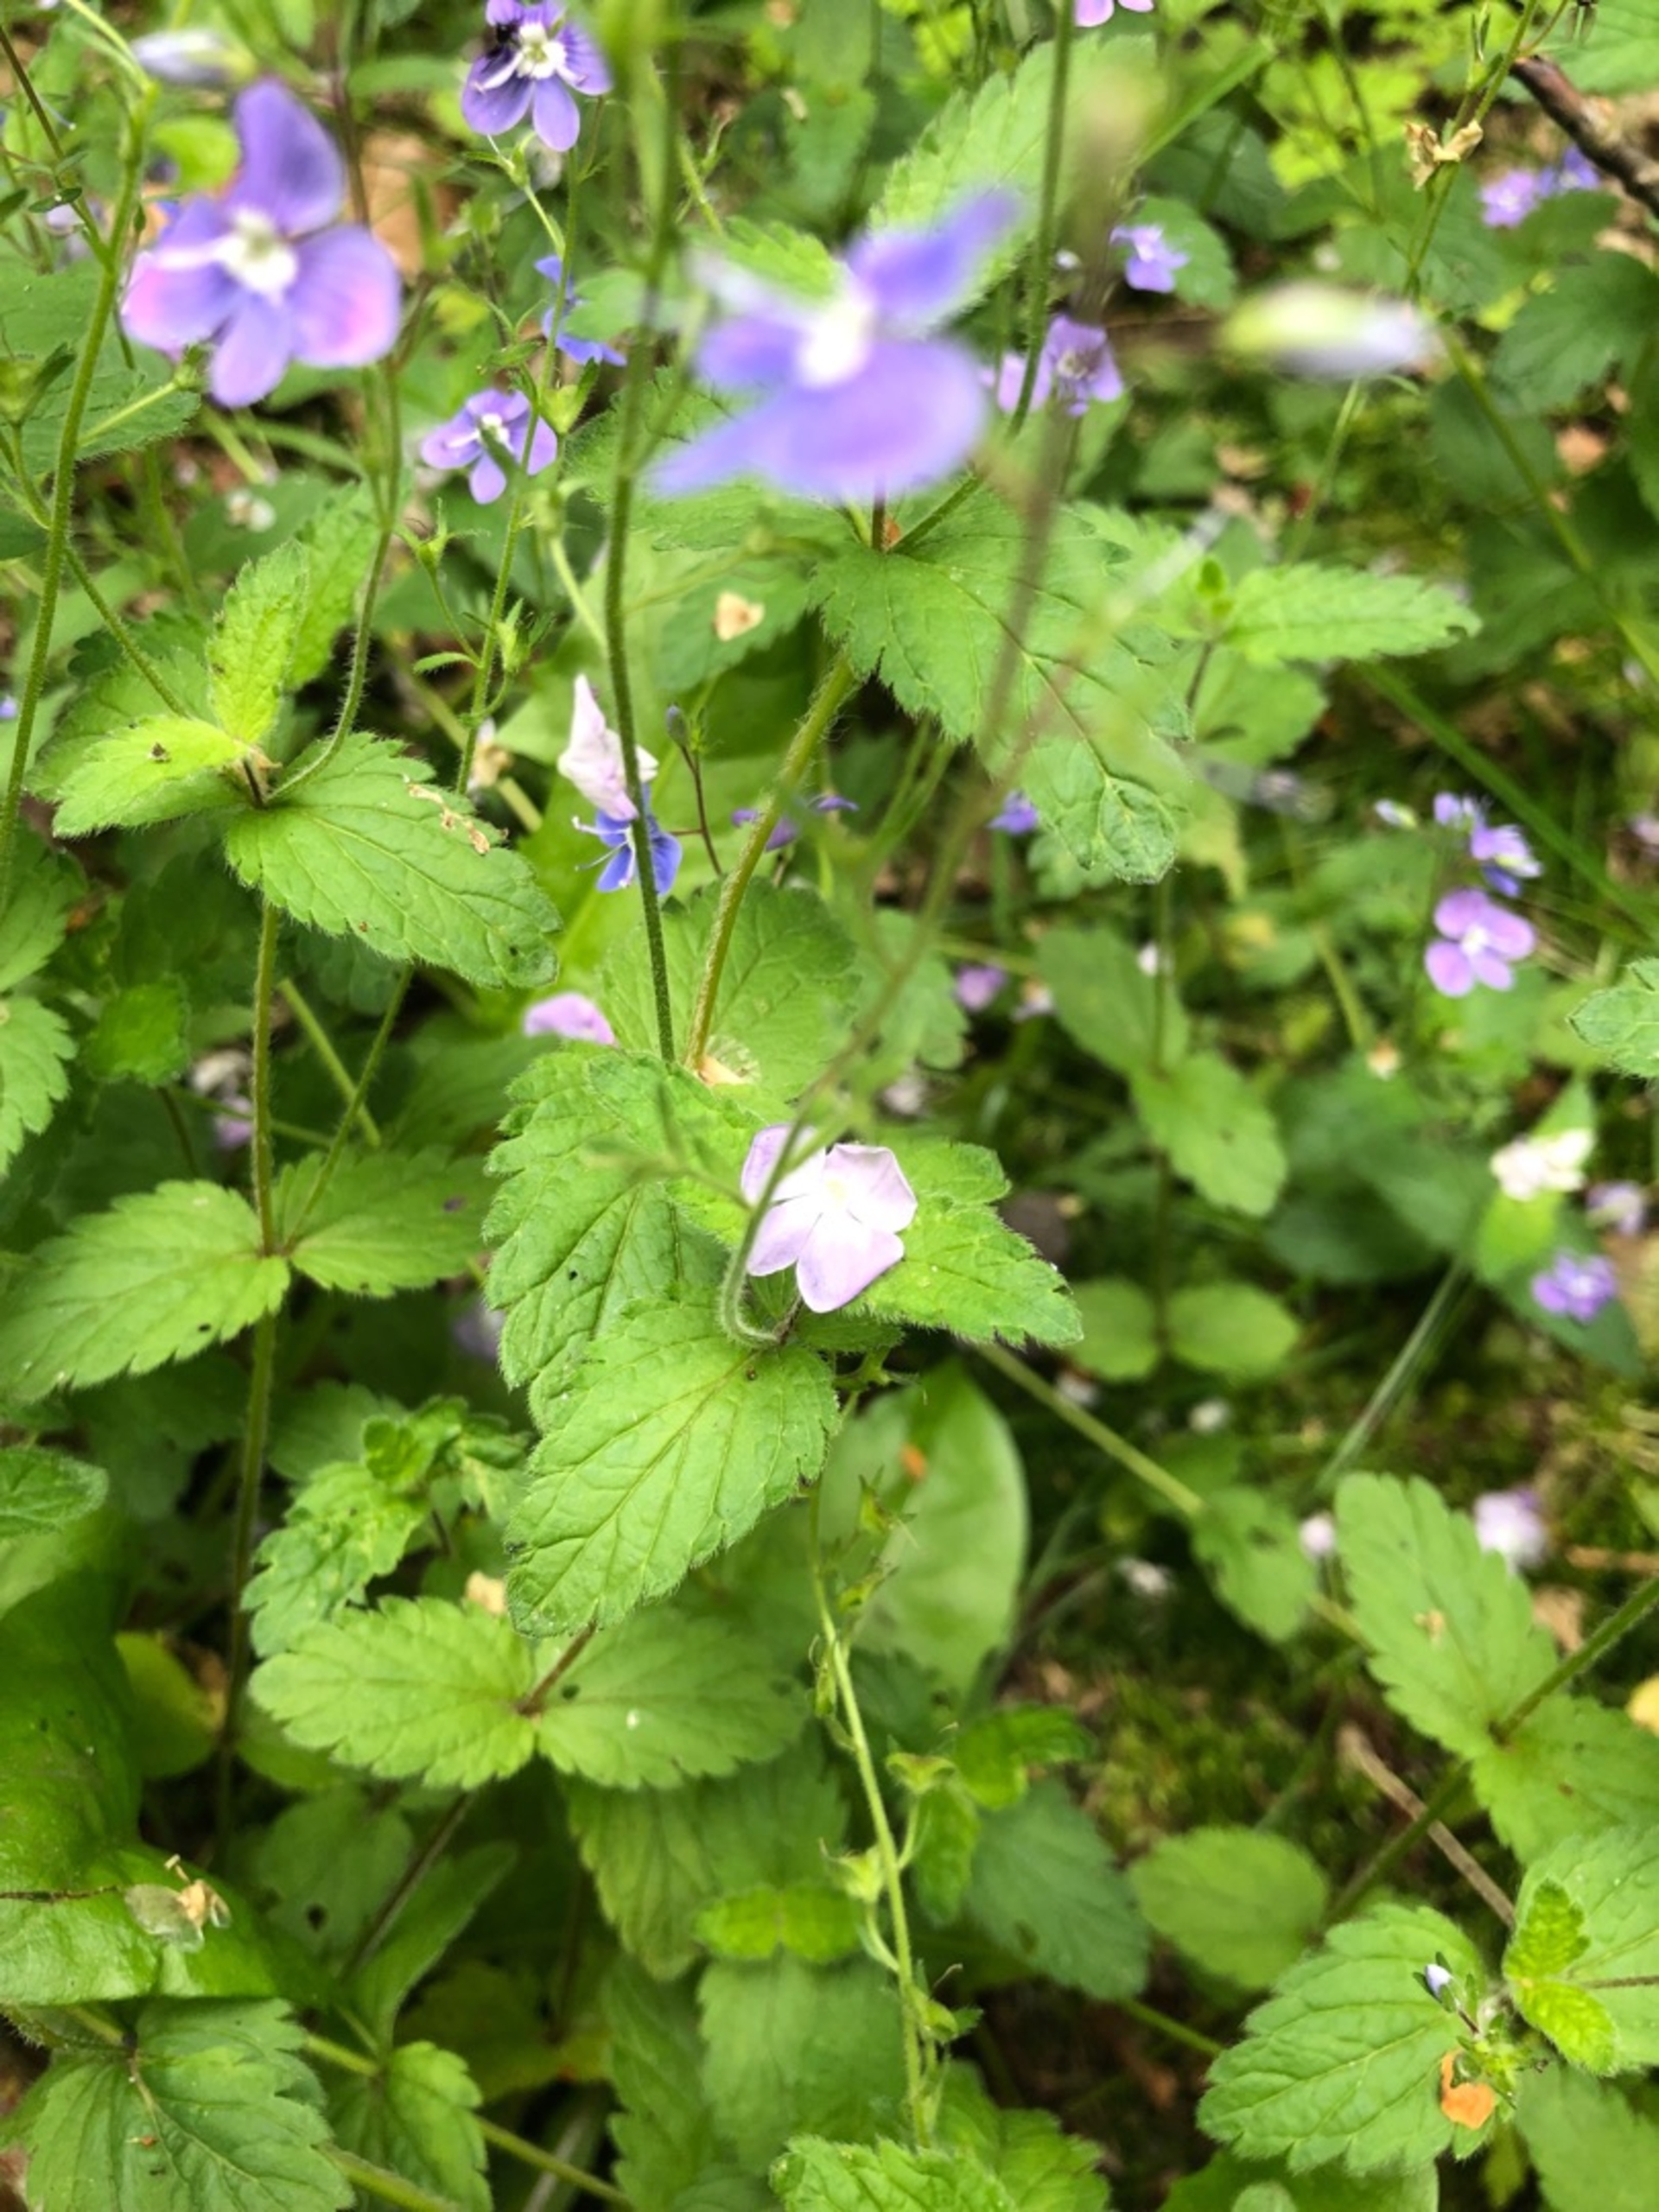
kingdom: Plantae
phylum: Tracheophyta
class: Magnoliopsida
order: Lamiales
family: Plantaginaceae
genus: Veronica
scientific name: Veronica chamaedrys
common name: Tveskægget ærenpris
